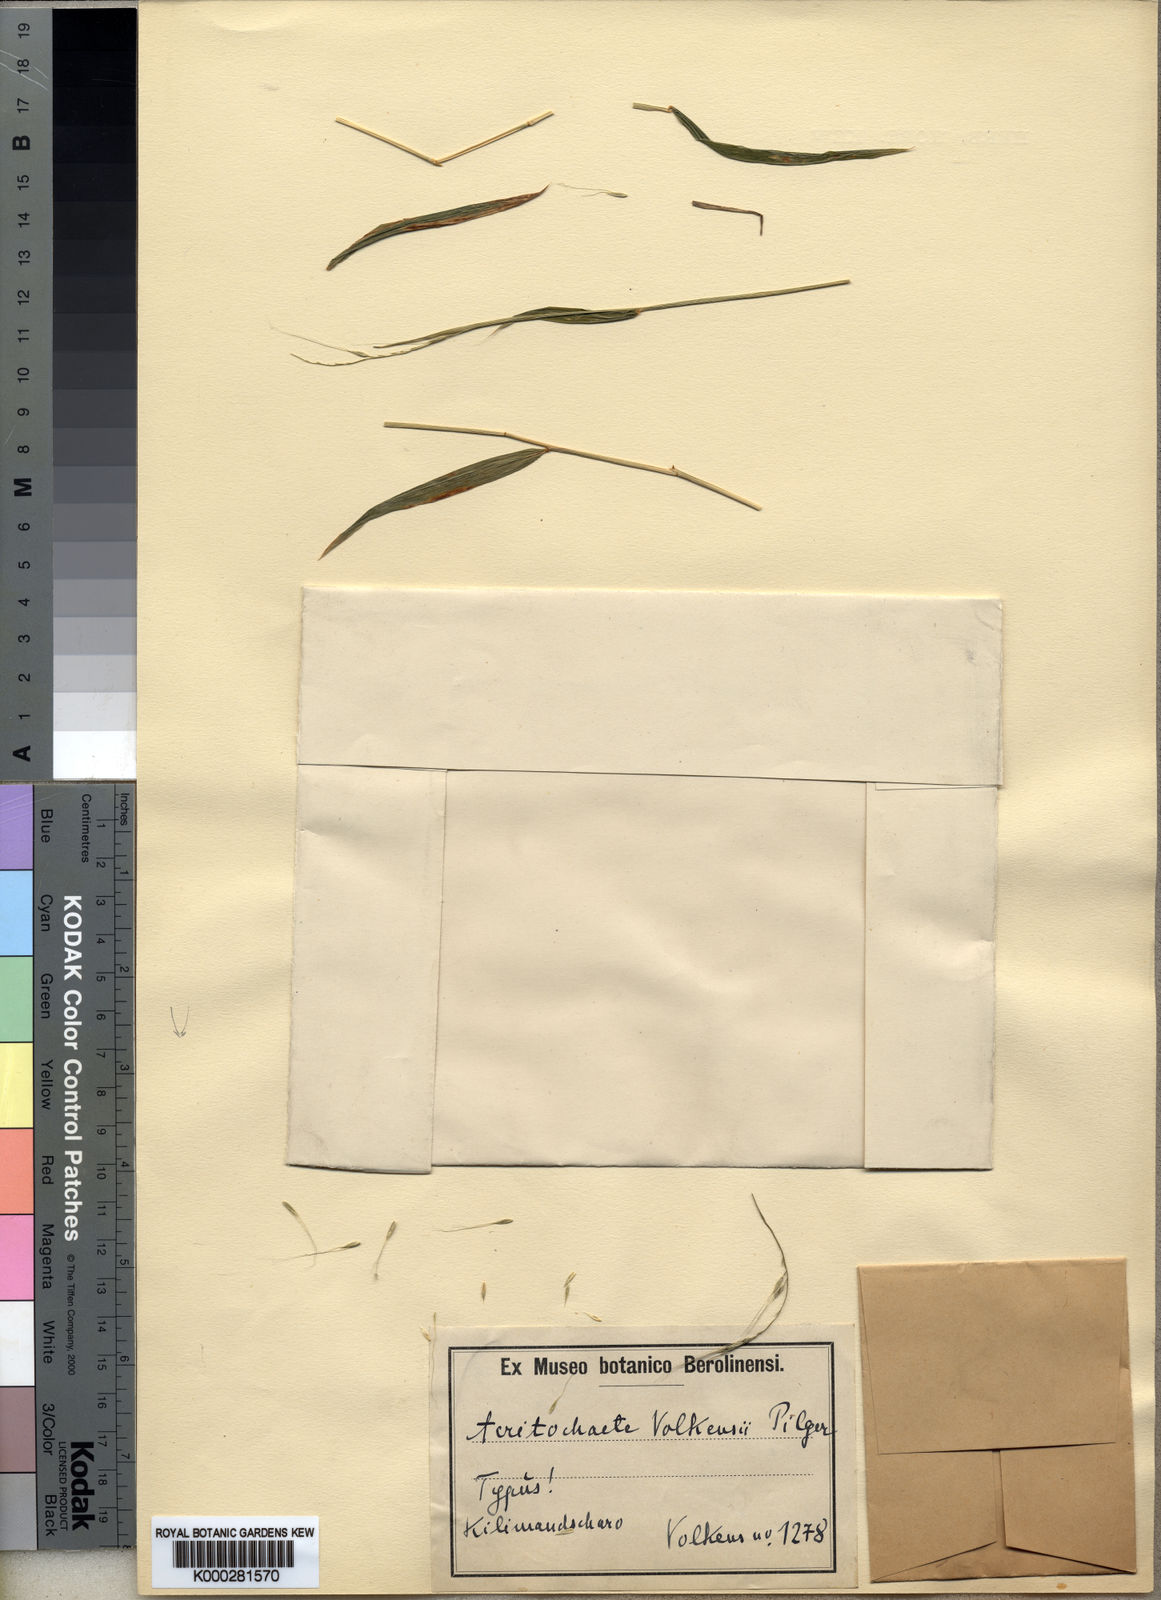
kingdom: Plantae
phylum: Tracheophyta
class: Liliopsida
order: Poales
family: Poaceae
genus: Acritochaete
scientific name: Acritochaete volkensii
